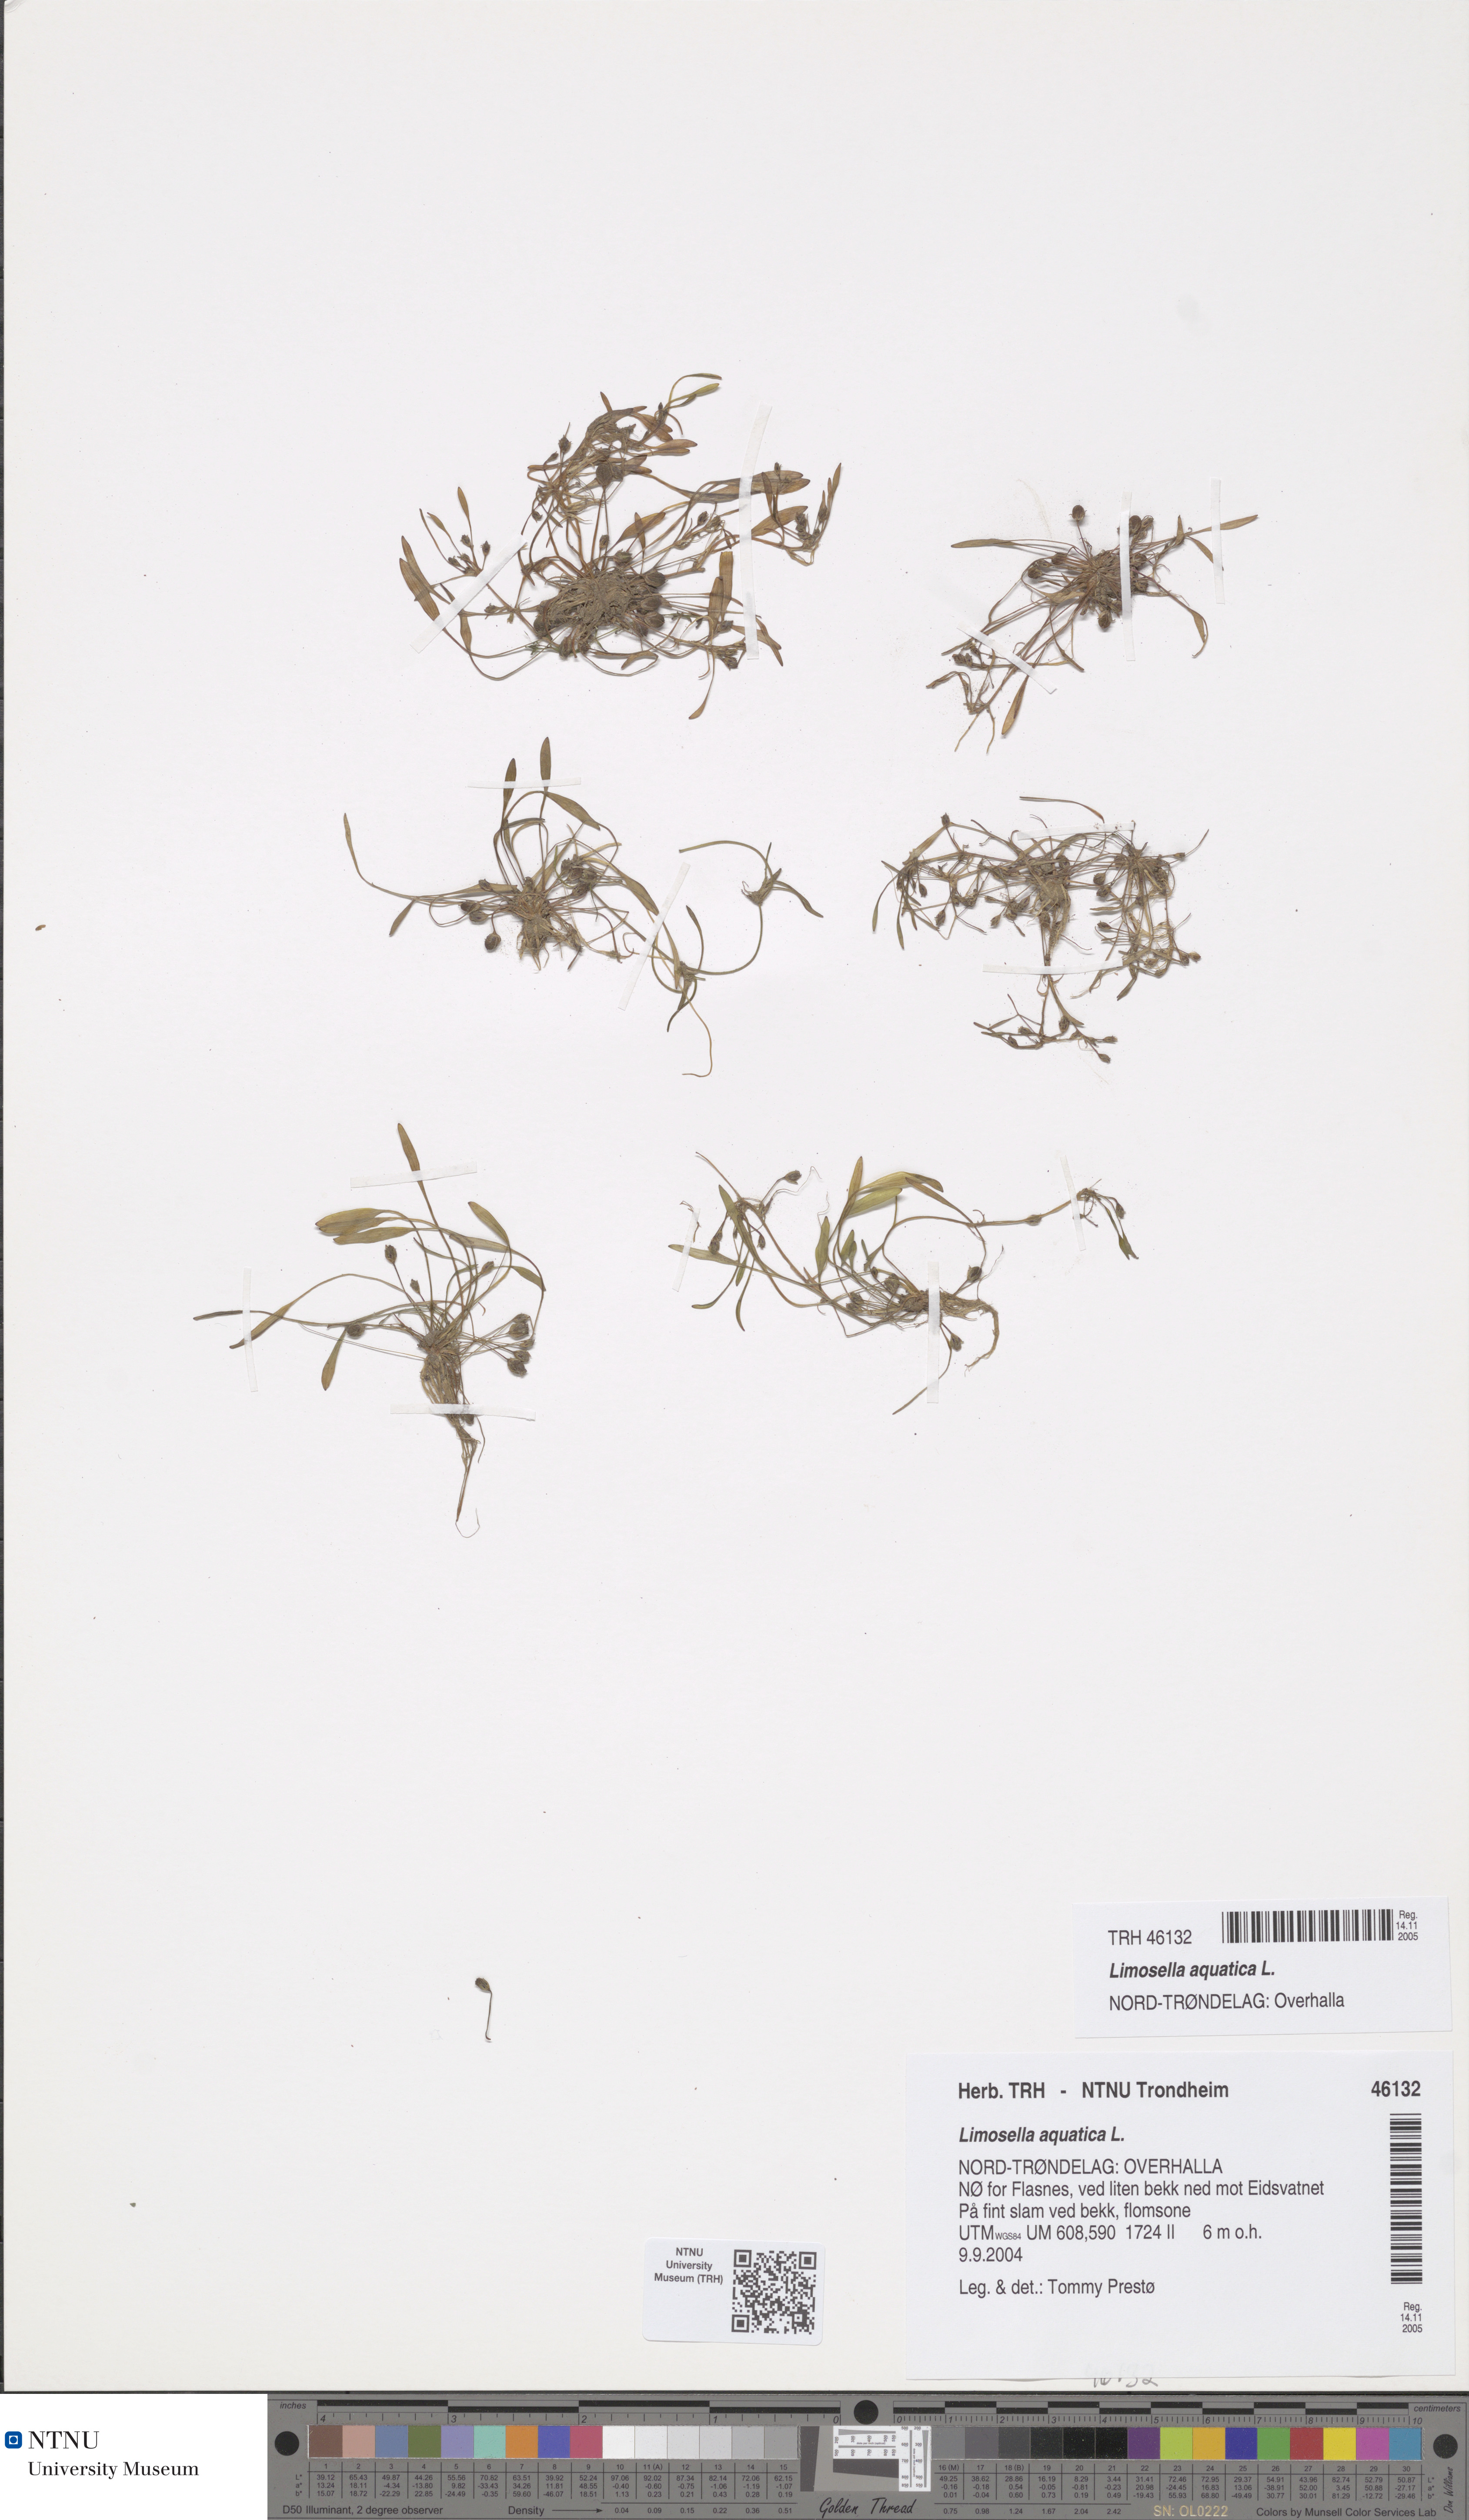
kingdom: Plantae
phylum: Tracheophyta
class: Magnoliopsida
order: Lamiales
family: Scrophulariaceae
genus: Limosella
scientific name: Limosella aquatica
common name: Mudwort
